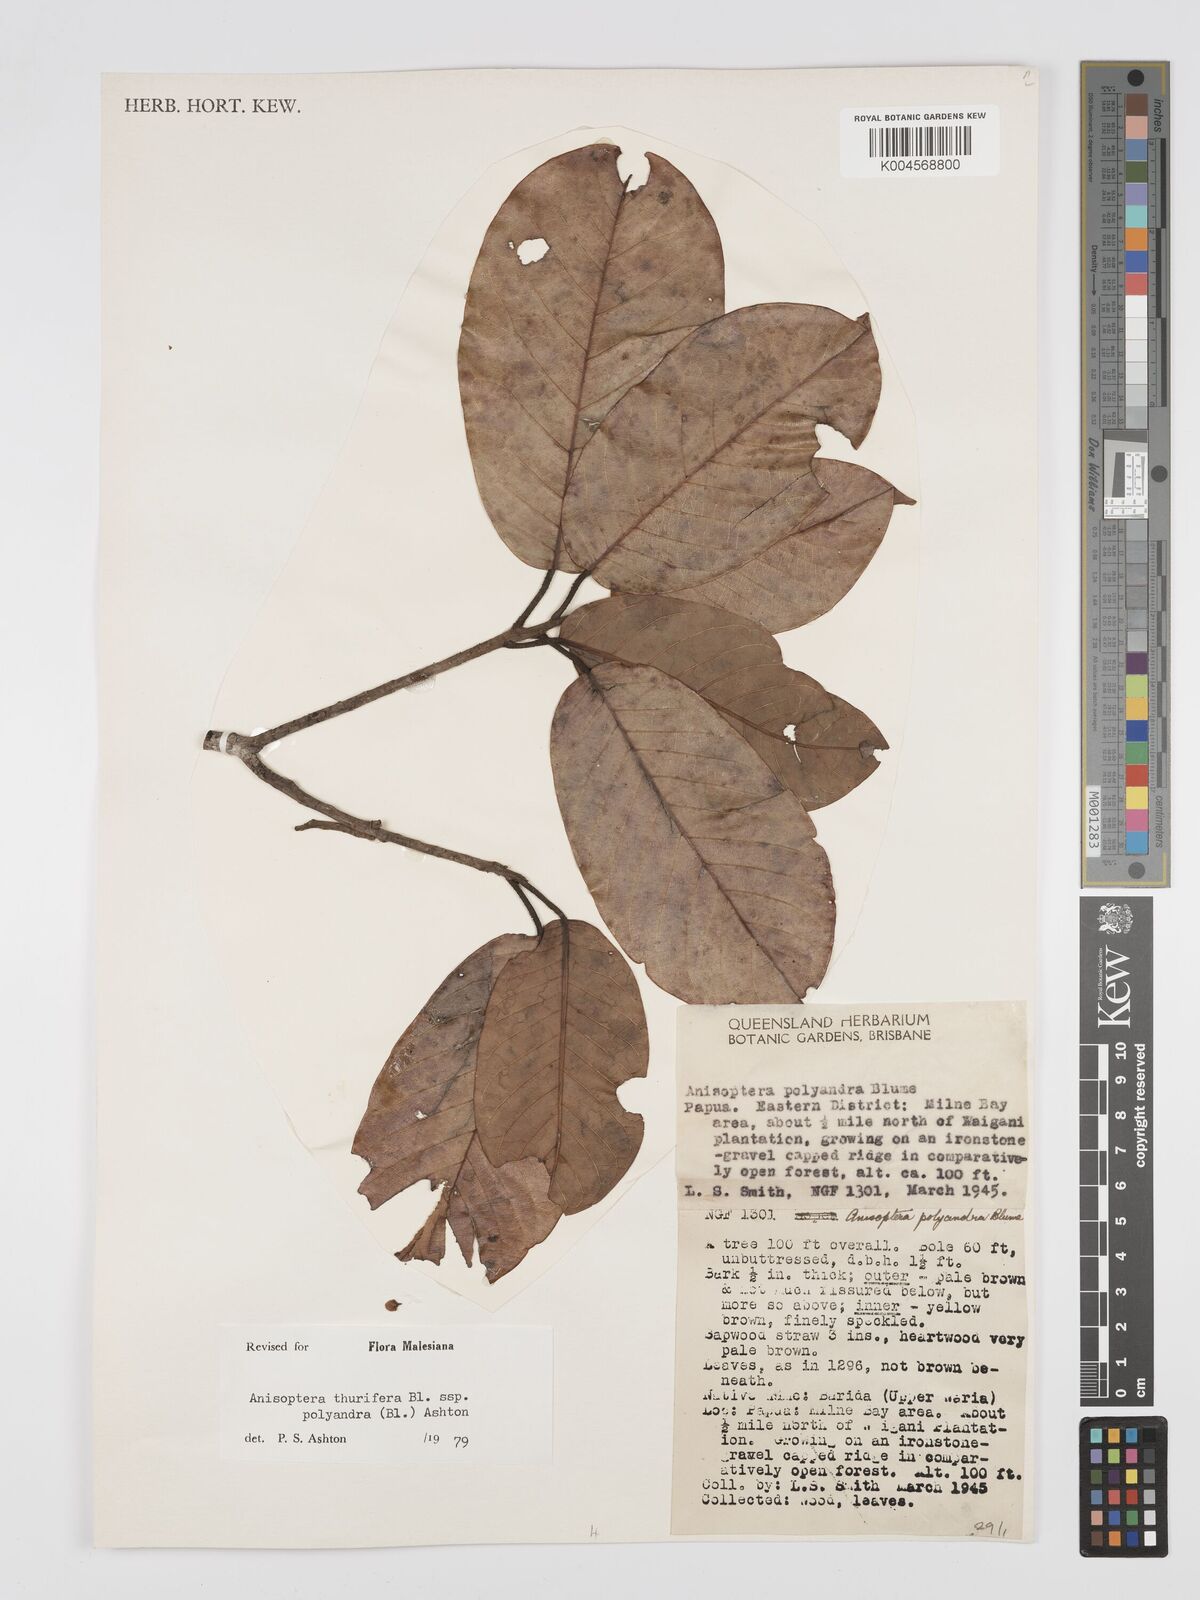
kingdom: Plantae
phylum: Tracheophyta
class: Magnoliopsida
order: Malvales
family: Dipterocarpaceae
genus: Anisoptera
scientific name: Anisoptera thurifera
